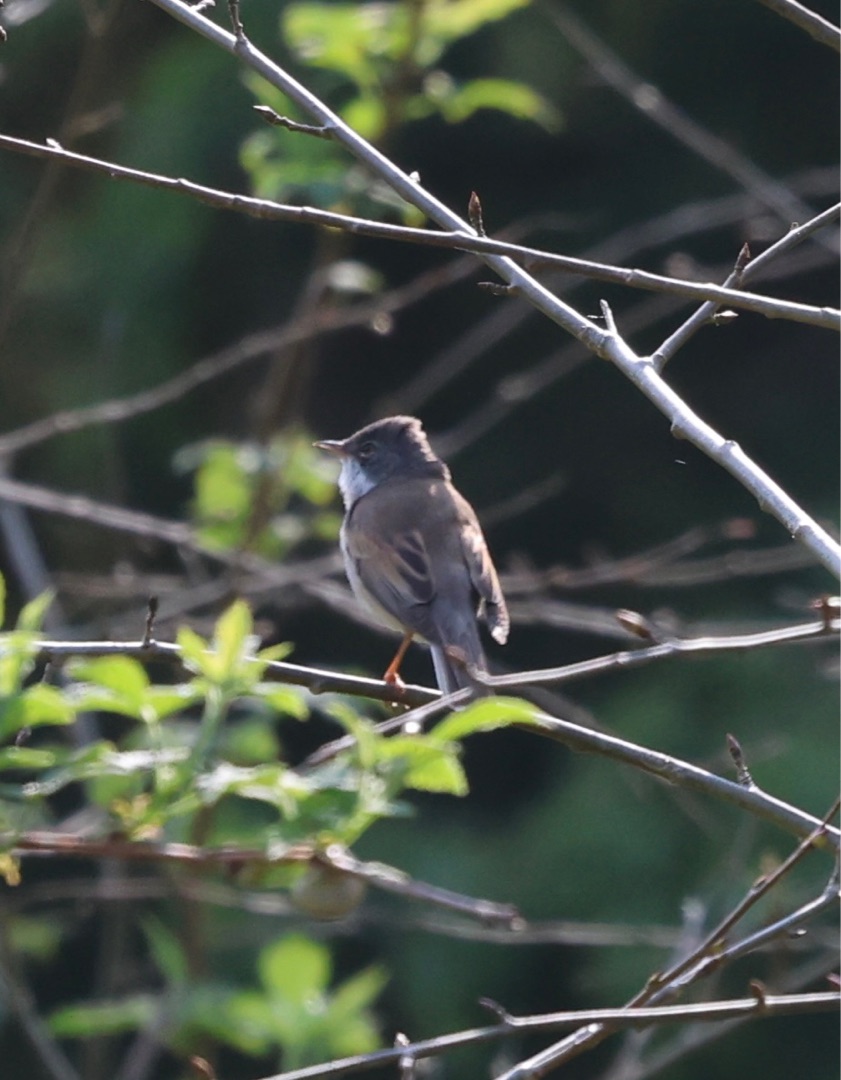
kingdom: Animalia
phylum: Chordata
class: Aves
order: Passeriformes
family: Sylviidae
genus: Sylvia
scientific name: Sylvia communis
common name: Tornsanger
